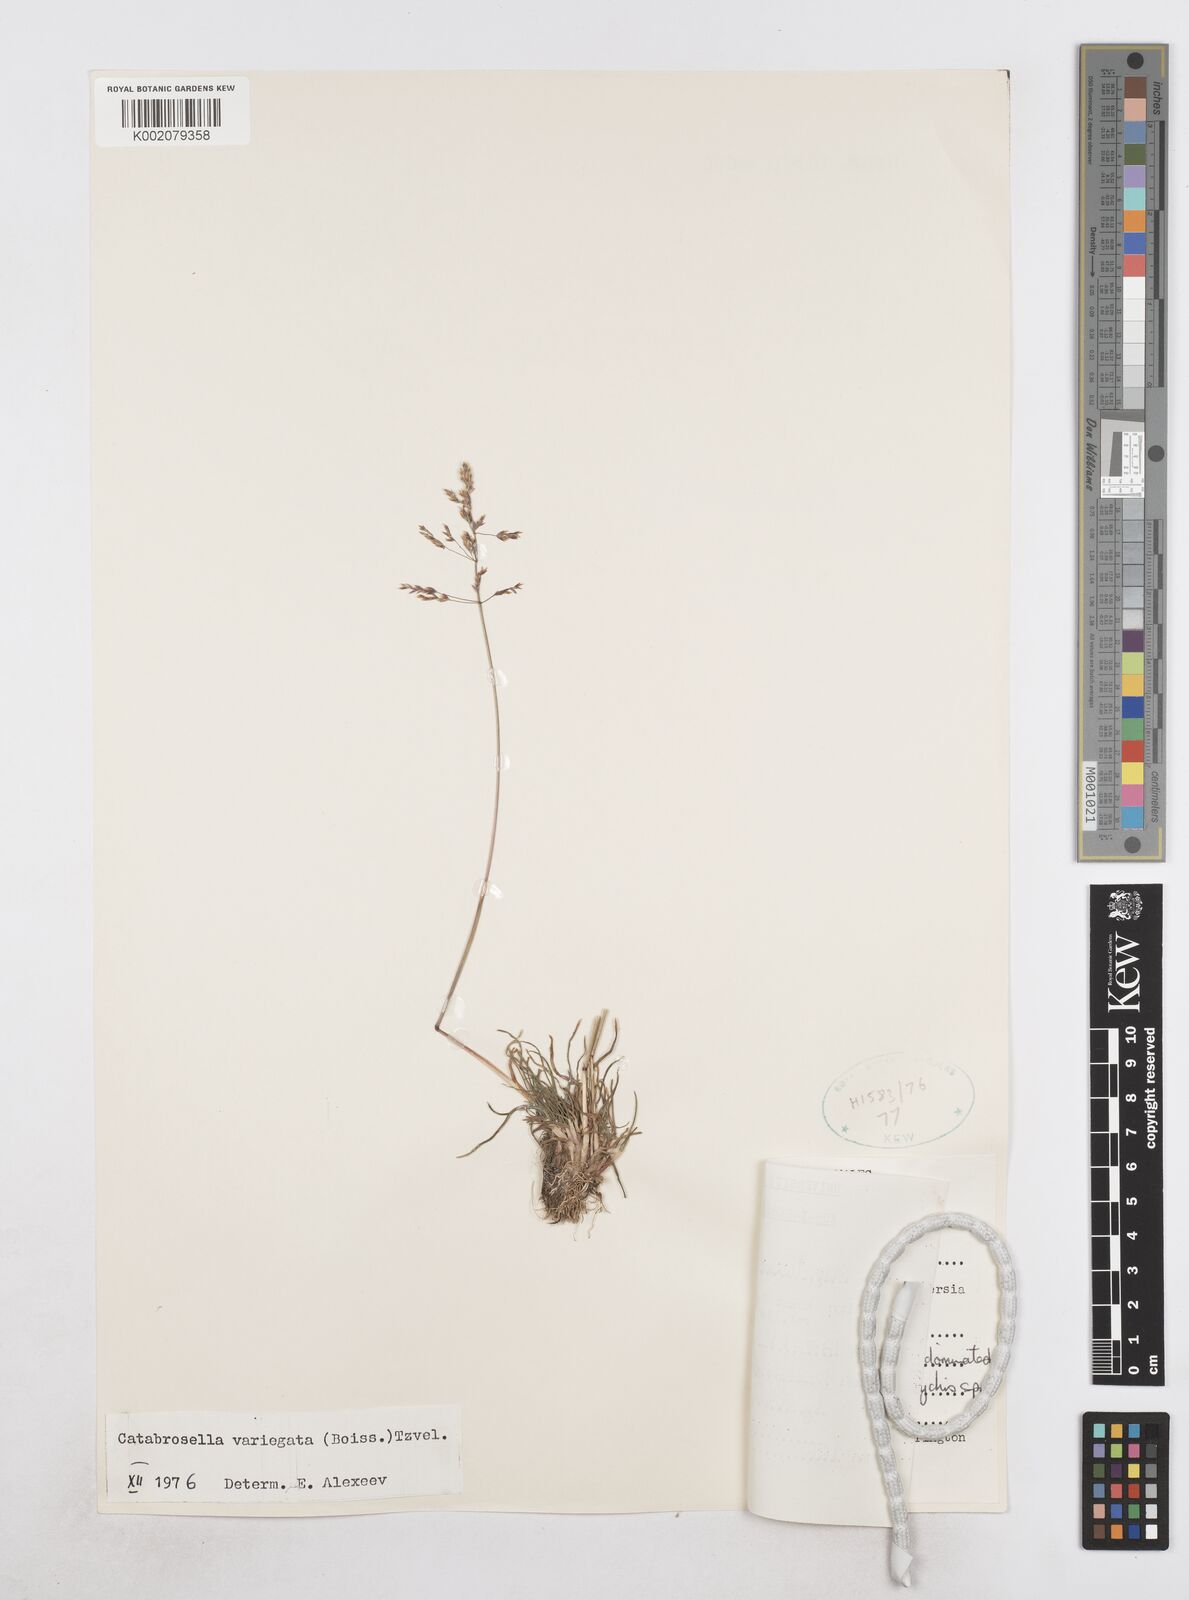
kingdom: Plantae
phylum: Tracheophyta
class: Liliopsida
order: Poales
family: Poaceae
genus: Catabrosella
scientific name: Catabrosella variegata
